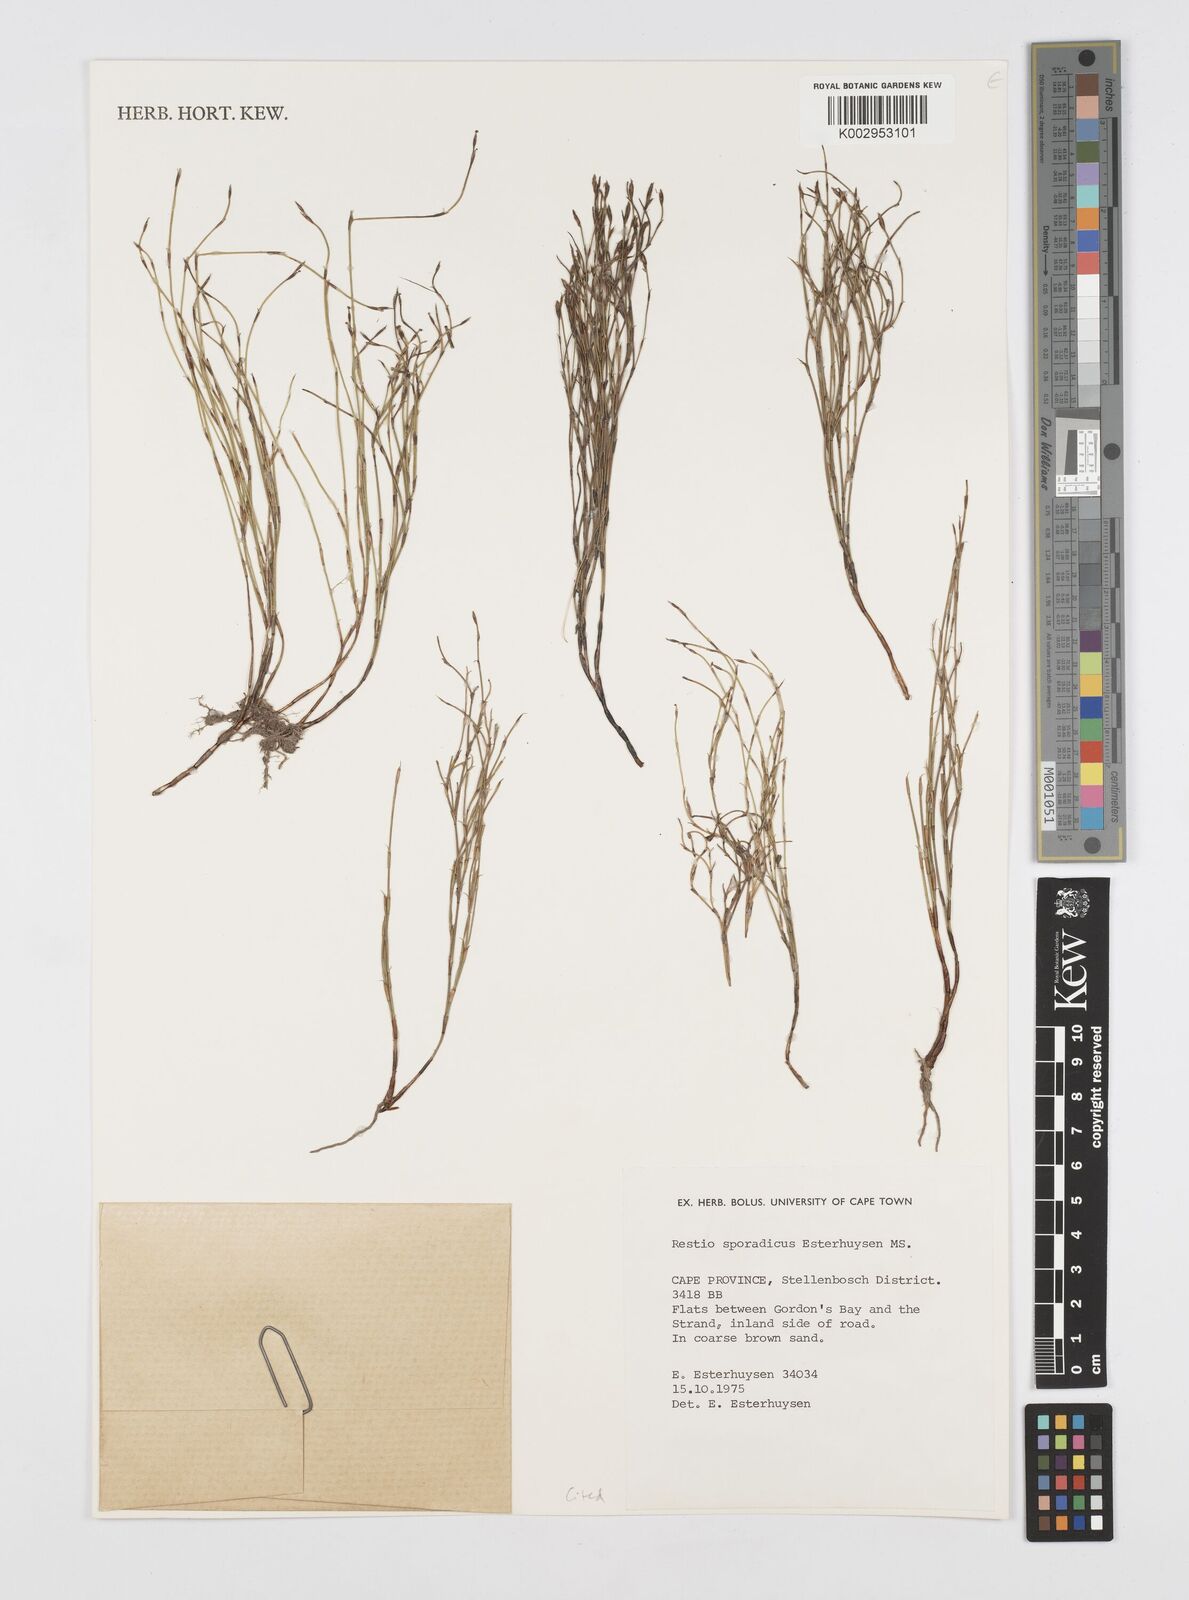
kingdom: Plantae
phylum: Tracheophyta
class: Liliopsida
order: Poales
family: Restionaceae
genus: Restio
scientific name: Restio sporadicus
